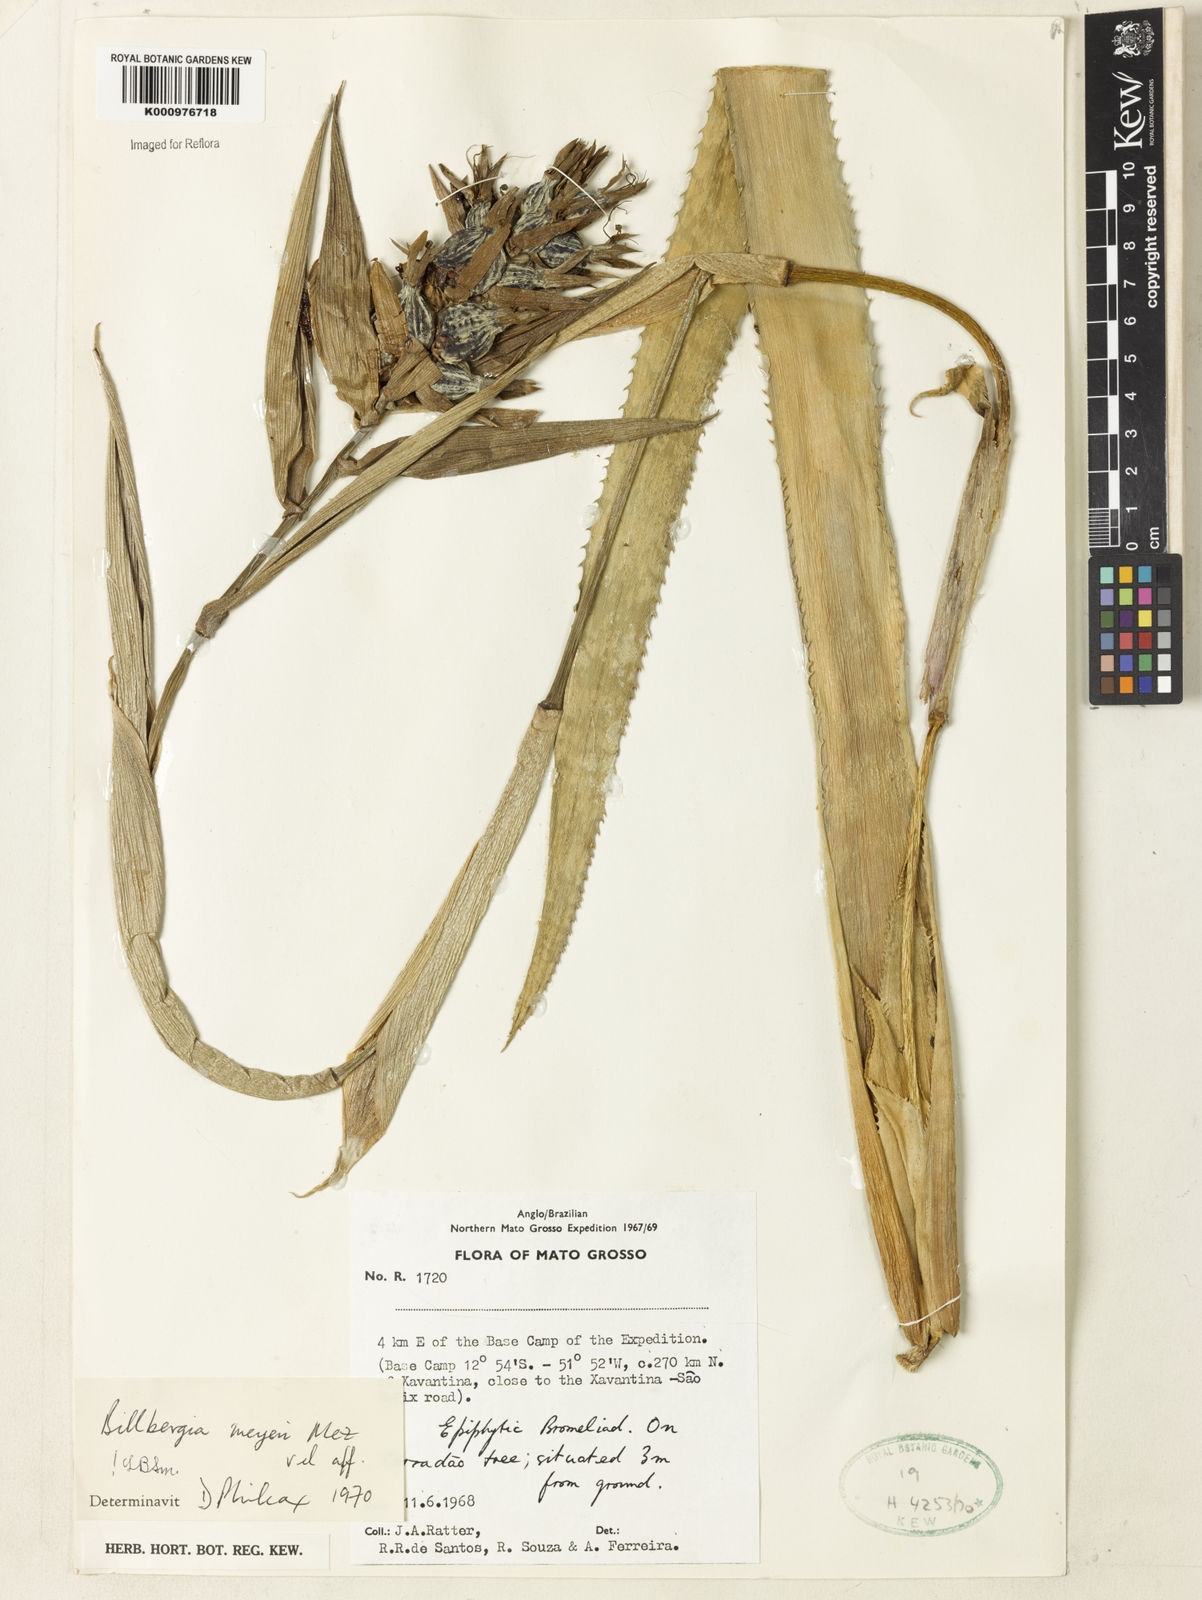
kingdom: Plantae
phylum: Tracheophyta
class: Liliopsida
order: Poales
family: Bromeliaceae
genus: Billbergia
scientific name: Billbergia meyeri
